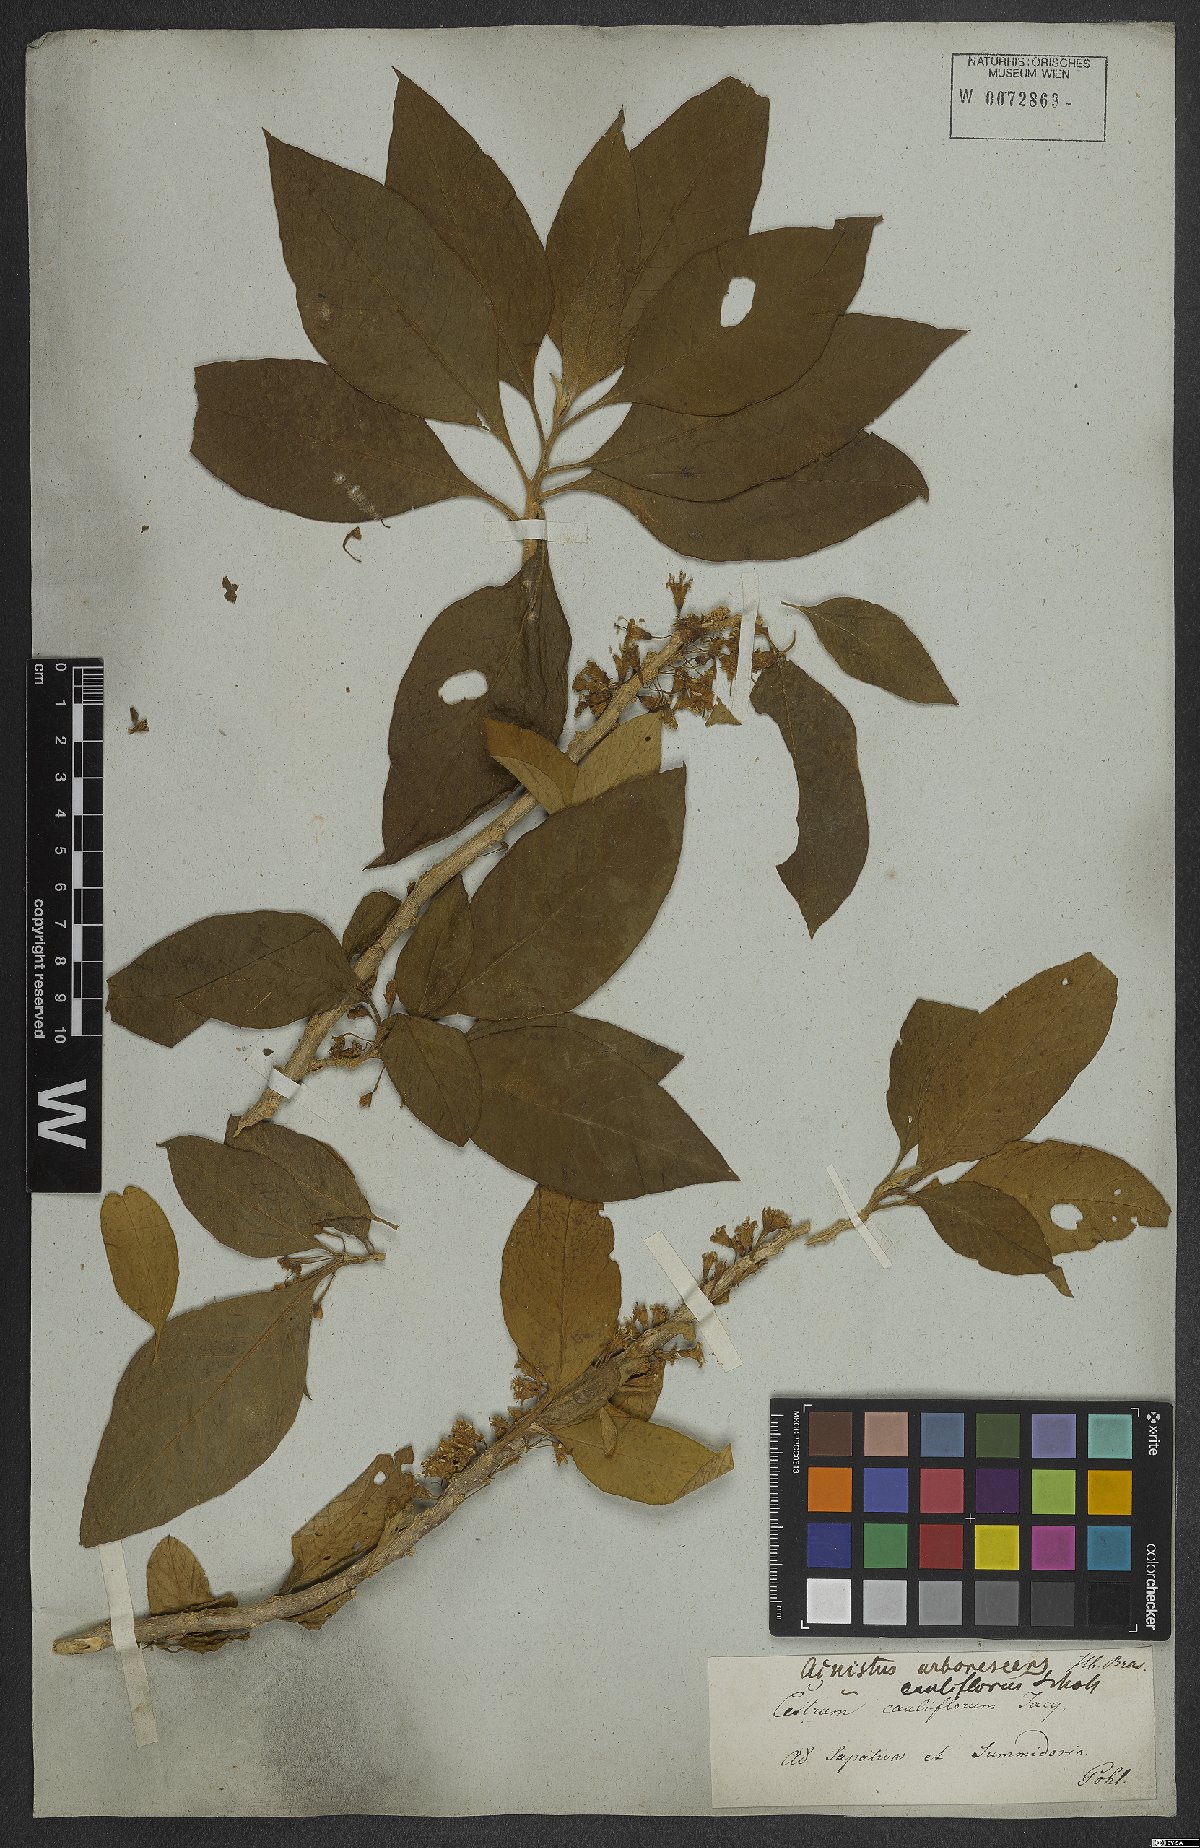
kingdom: Plantae
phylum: Tracheophyta
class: Magnoliopsida
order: Solanales
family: Solanaceae
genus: Iochroma
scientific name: Iochroma arborescens
